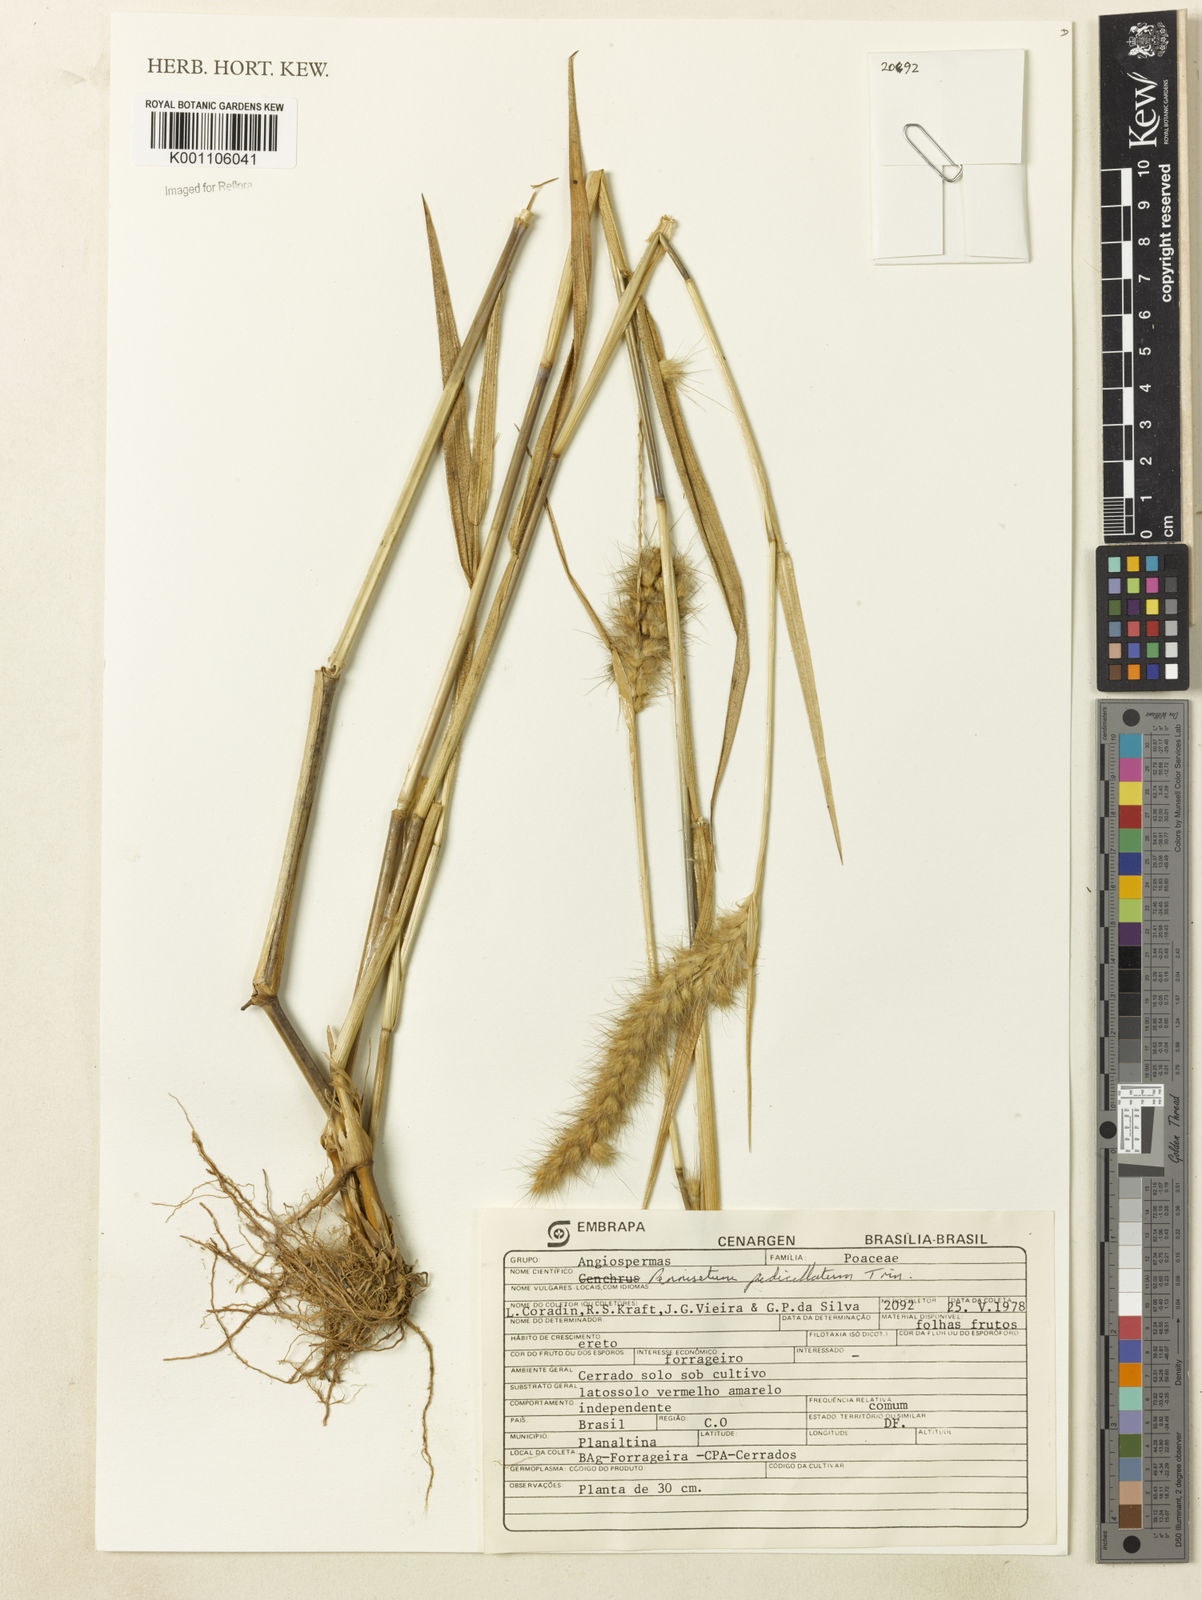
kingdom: Plantae
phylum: Tracheophyta
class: Liliopsida
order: Poales
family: Poaceae
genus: Cenchrus
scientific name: Cenchrus pedicellatus
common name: Hairy fountain grass
